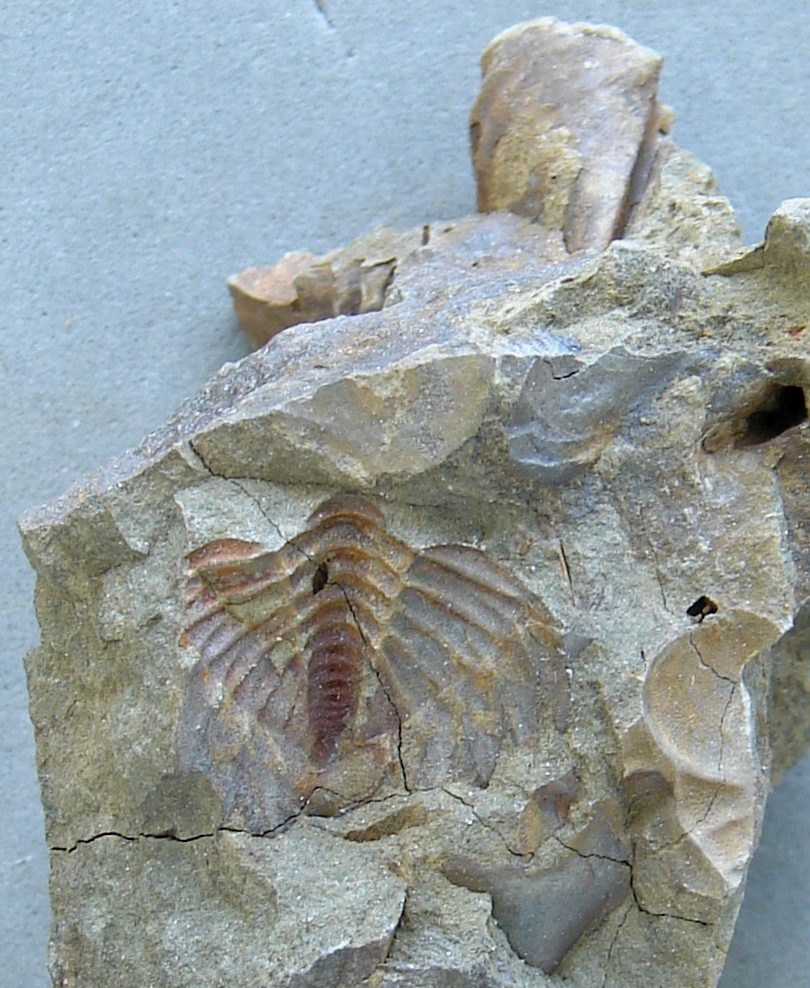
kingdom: Animalia
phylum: Arthropoda
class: Trilobita
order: Phacopida
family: Calmoniidae
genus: Treveropyge
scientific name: Treveropyge wiltziana
